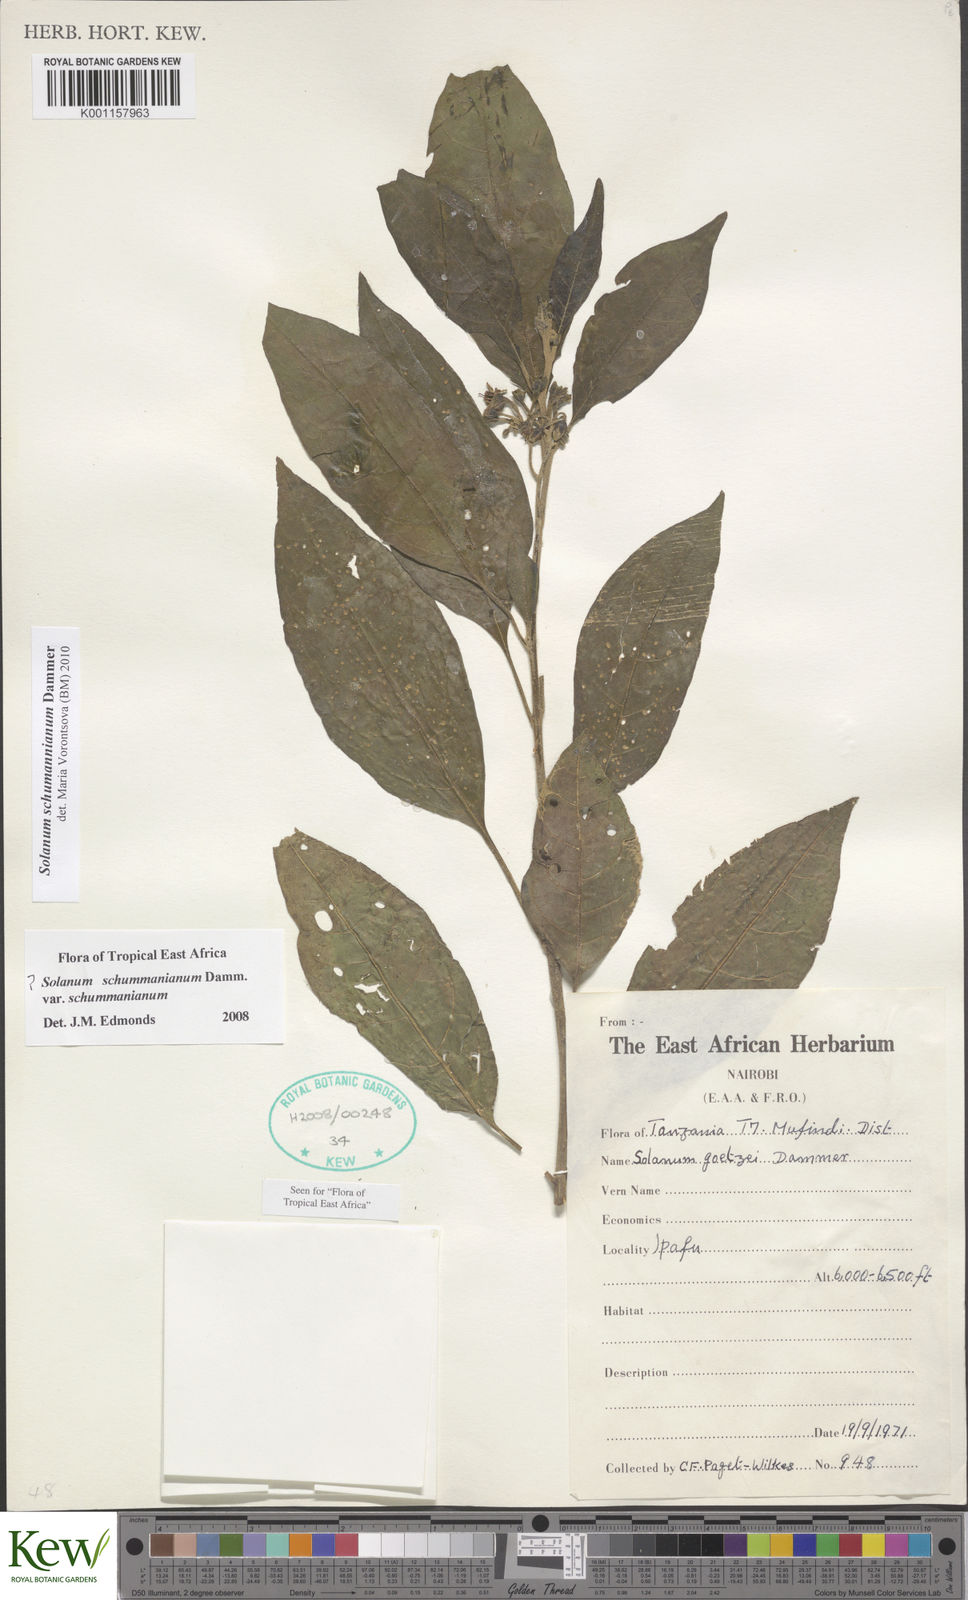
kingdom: Plantae
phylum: Tracheophyta
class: Magnoliopsida
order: Solanales
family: Solanaceae
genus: Solanum
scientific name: Solanum schumannianum
